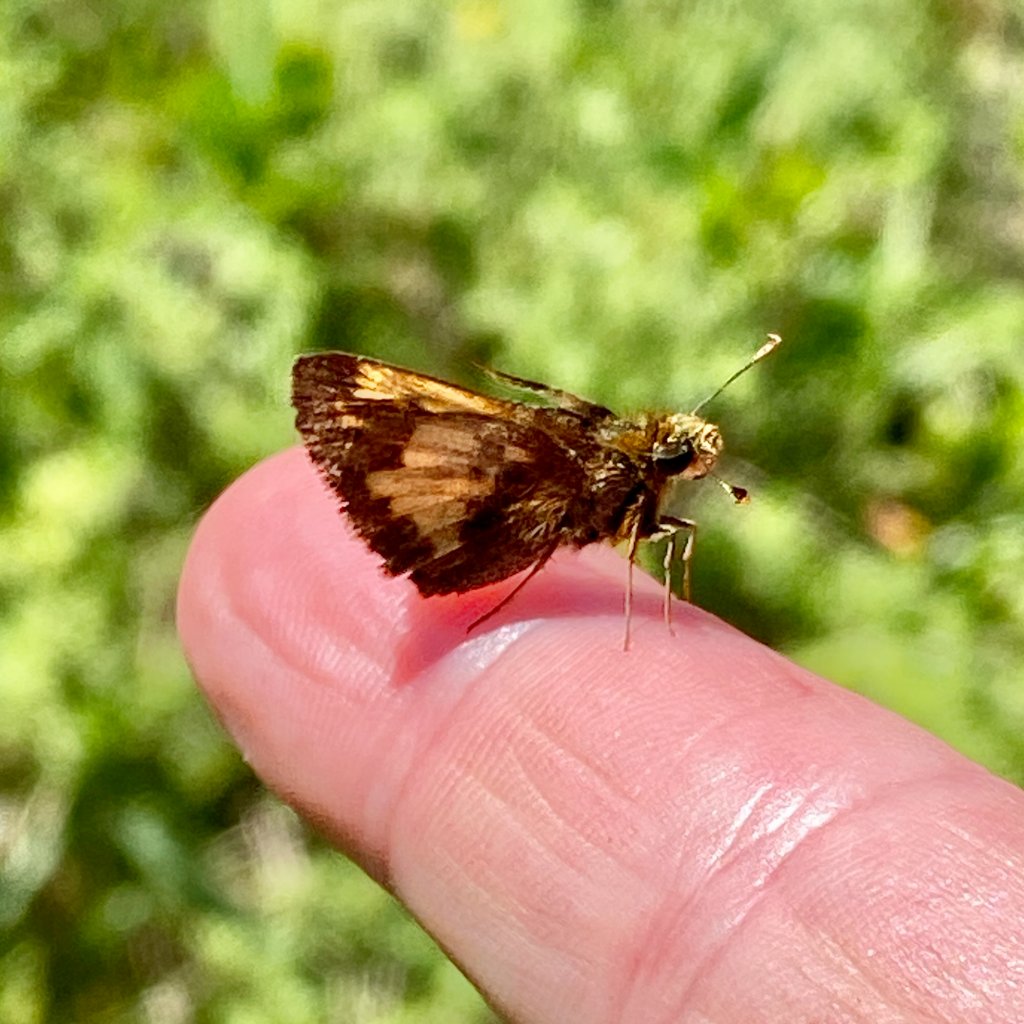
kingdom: Animalia
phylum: Arthropoda
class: Insecta
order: Lepidoptera
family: Hesperiidae
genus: Lon
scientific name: Lon hobomok
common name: Hobomok Skipper
